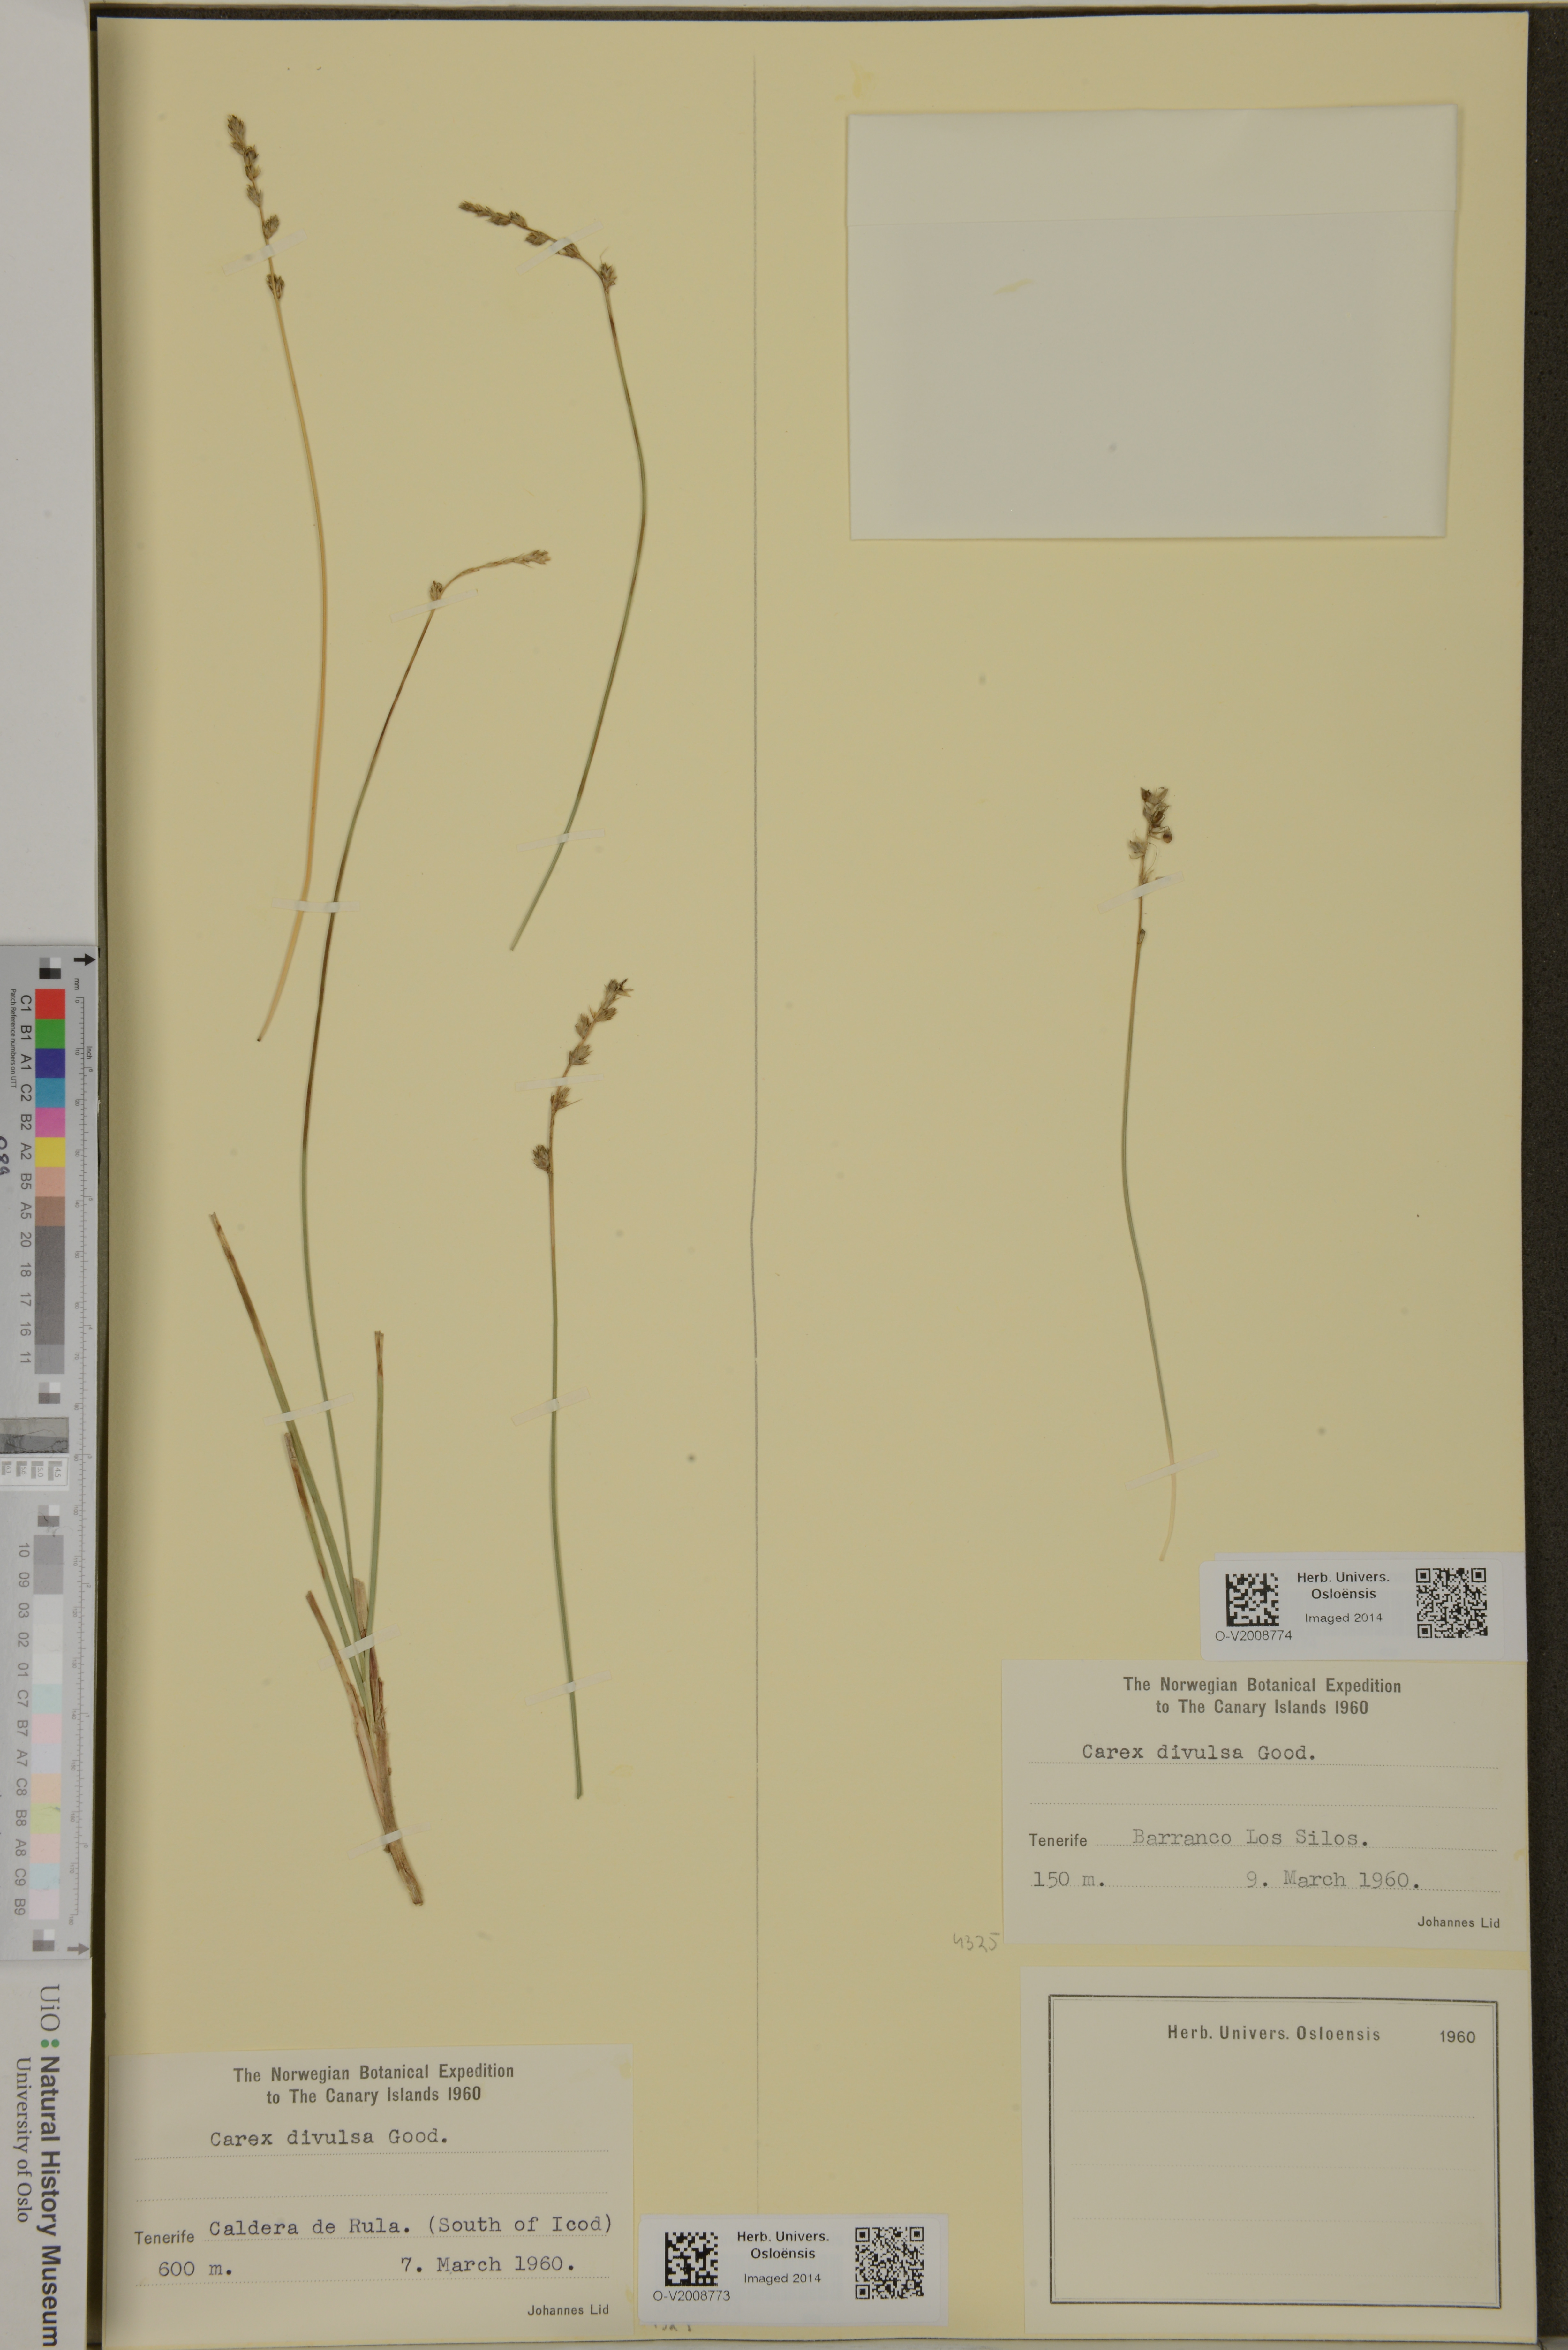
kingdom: Plantae
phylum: Tracheophyta
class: Liliopsida
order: Poales
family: Cyperaceae
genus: Carex
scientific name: Carex divulsa
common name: Grassland sedge
